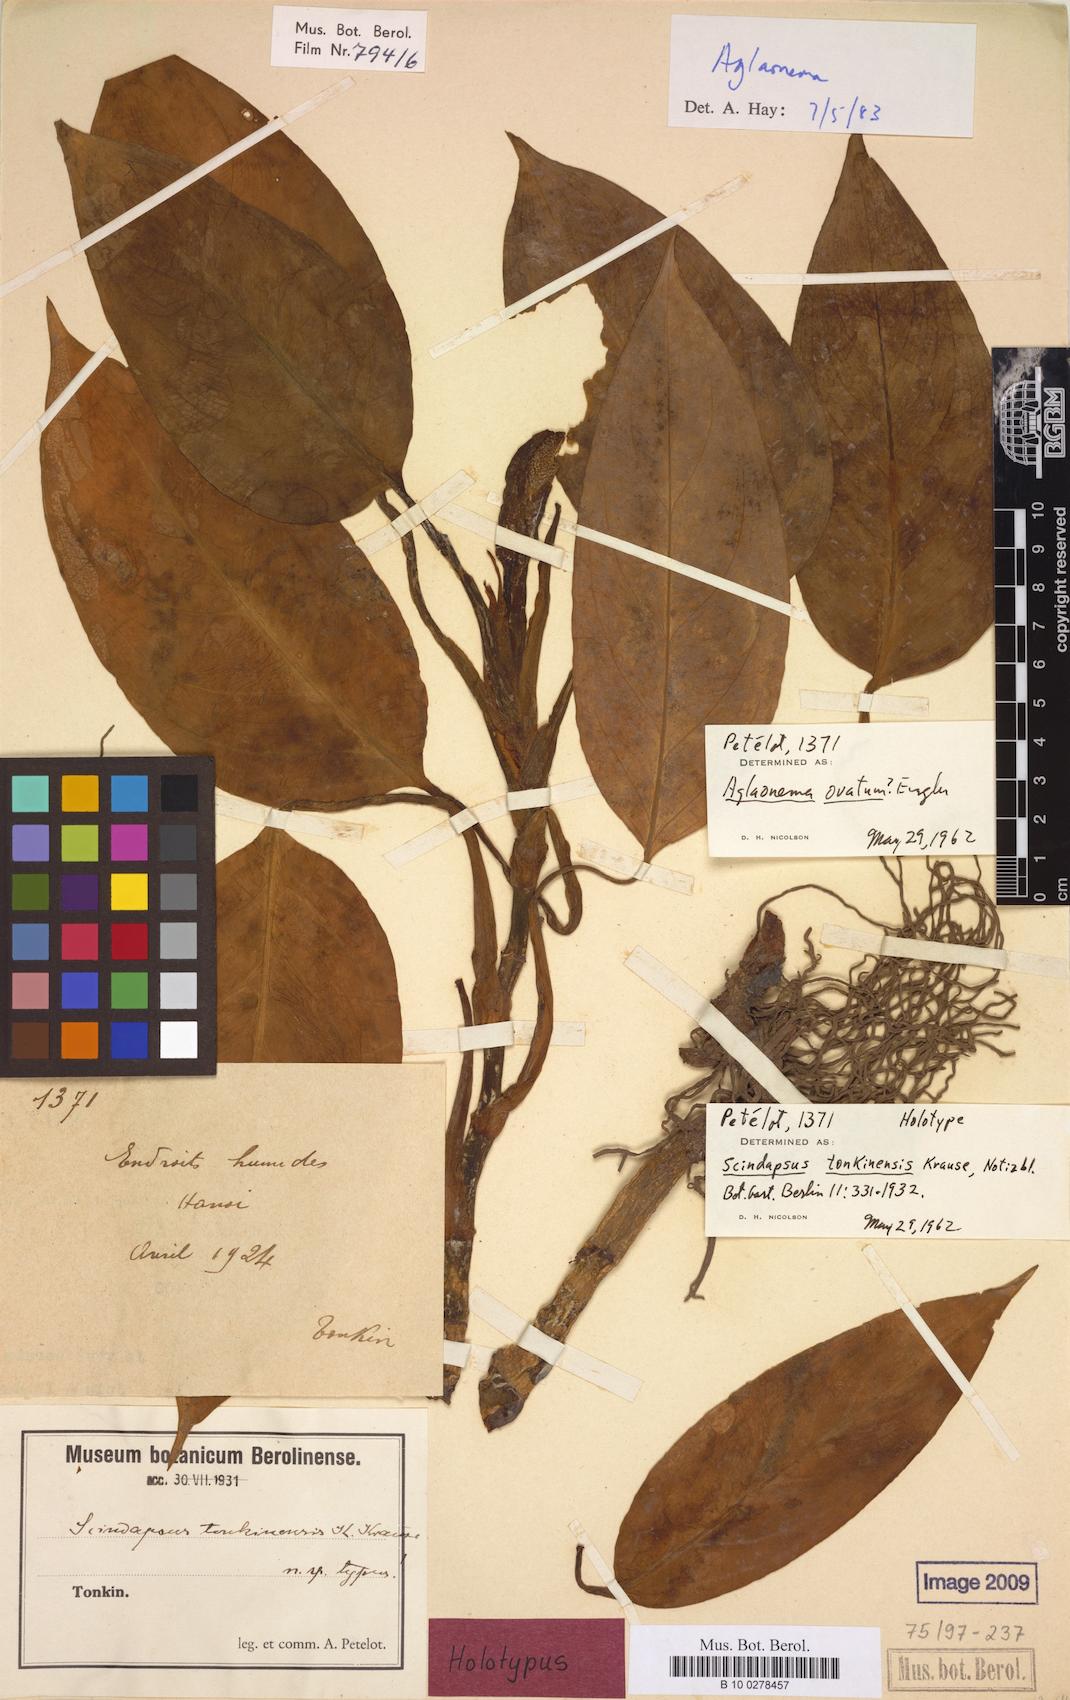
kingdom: Plantae
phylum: Tracheophyta
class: Liliopsida
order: Alismatales
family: Araceae
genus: Aglaonema
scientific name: Aglaonema simplex
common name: Malayan-sword
